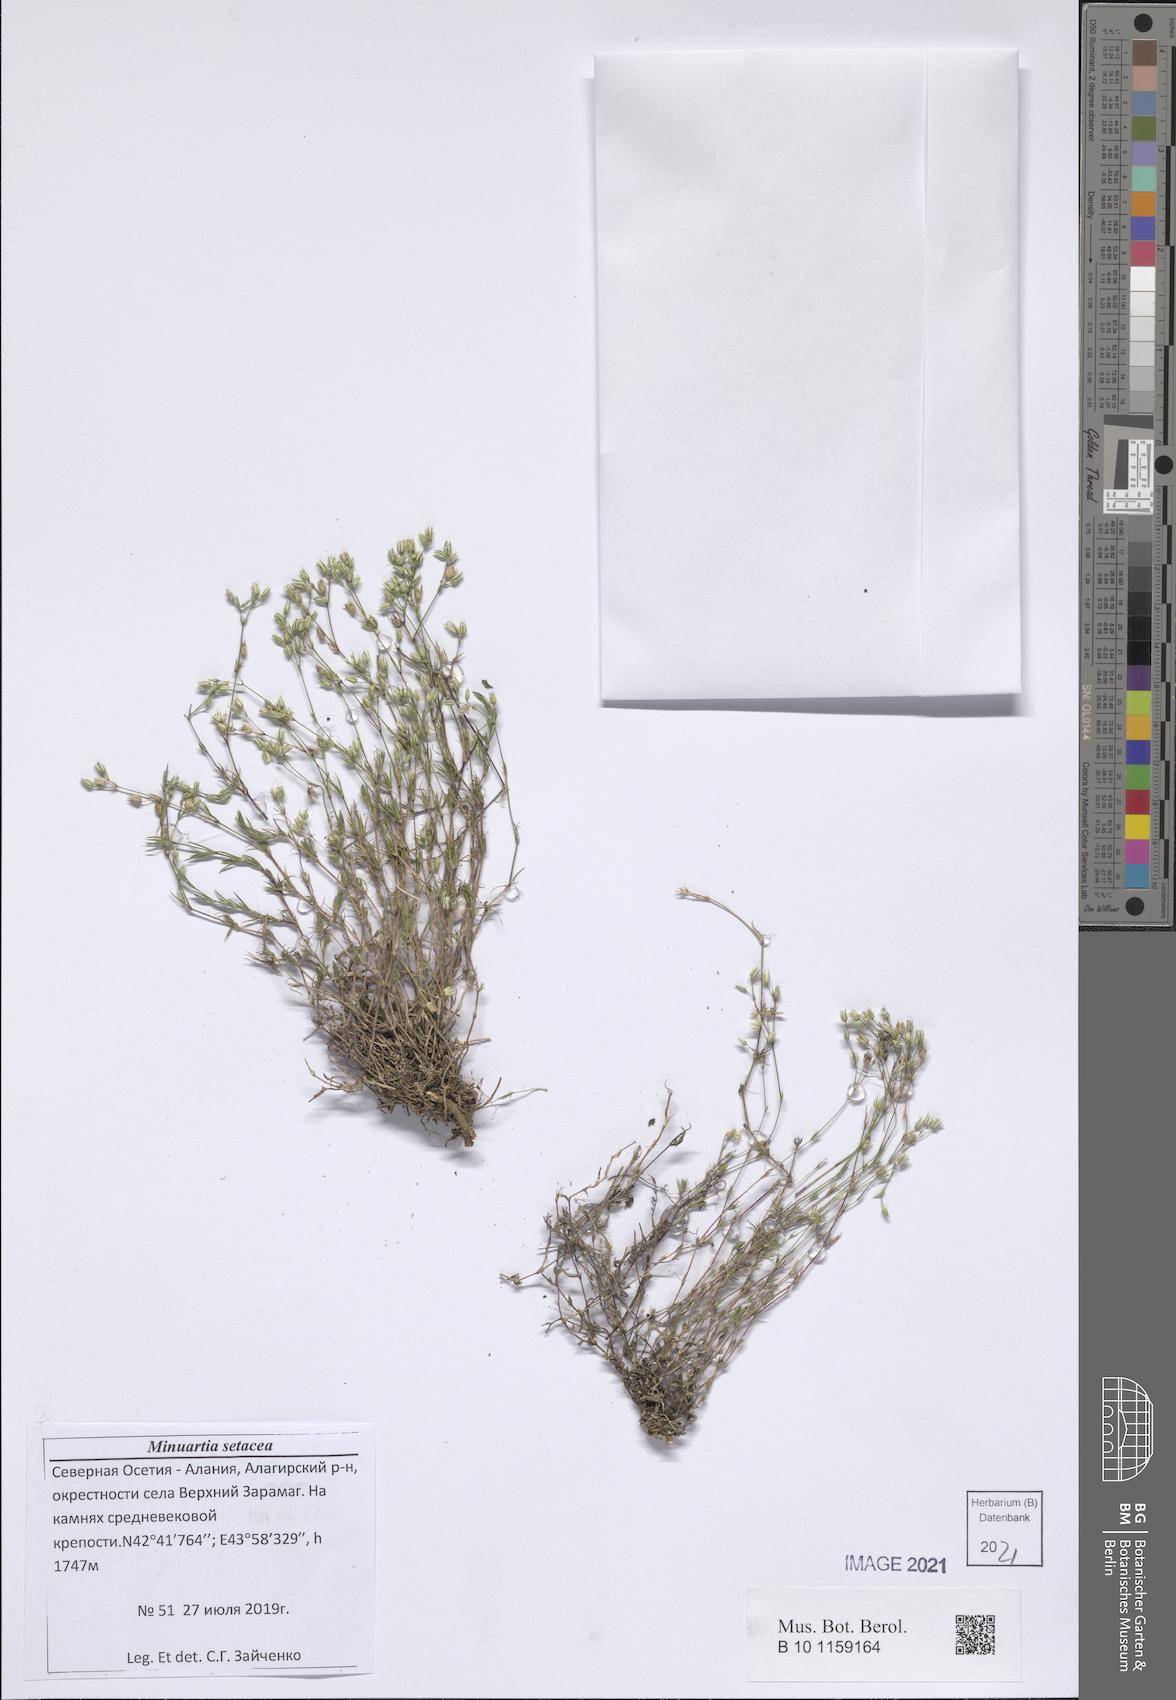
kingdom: Plantae
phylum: Tracheophyta
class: Magnoliopsida
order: Caryophyllales
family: Caryophyllaceae
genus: Minuartia
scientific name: Minuartia setacea
